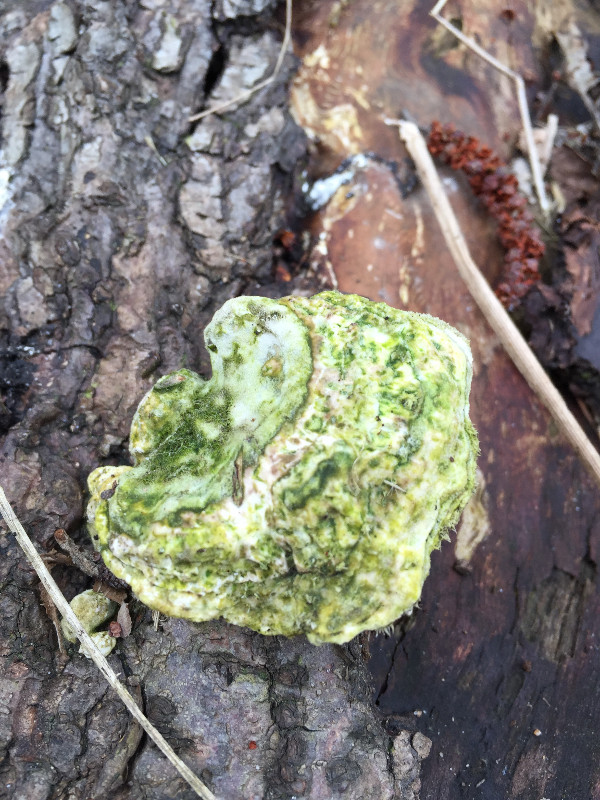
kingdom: Fungi
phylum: Basidiomycota
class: Agaricomycetes
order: Polyporales
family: Polyporaceae
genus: Trametes
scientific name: Trametes hirsuta
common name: håret læderporesvamp
